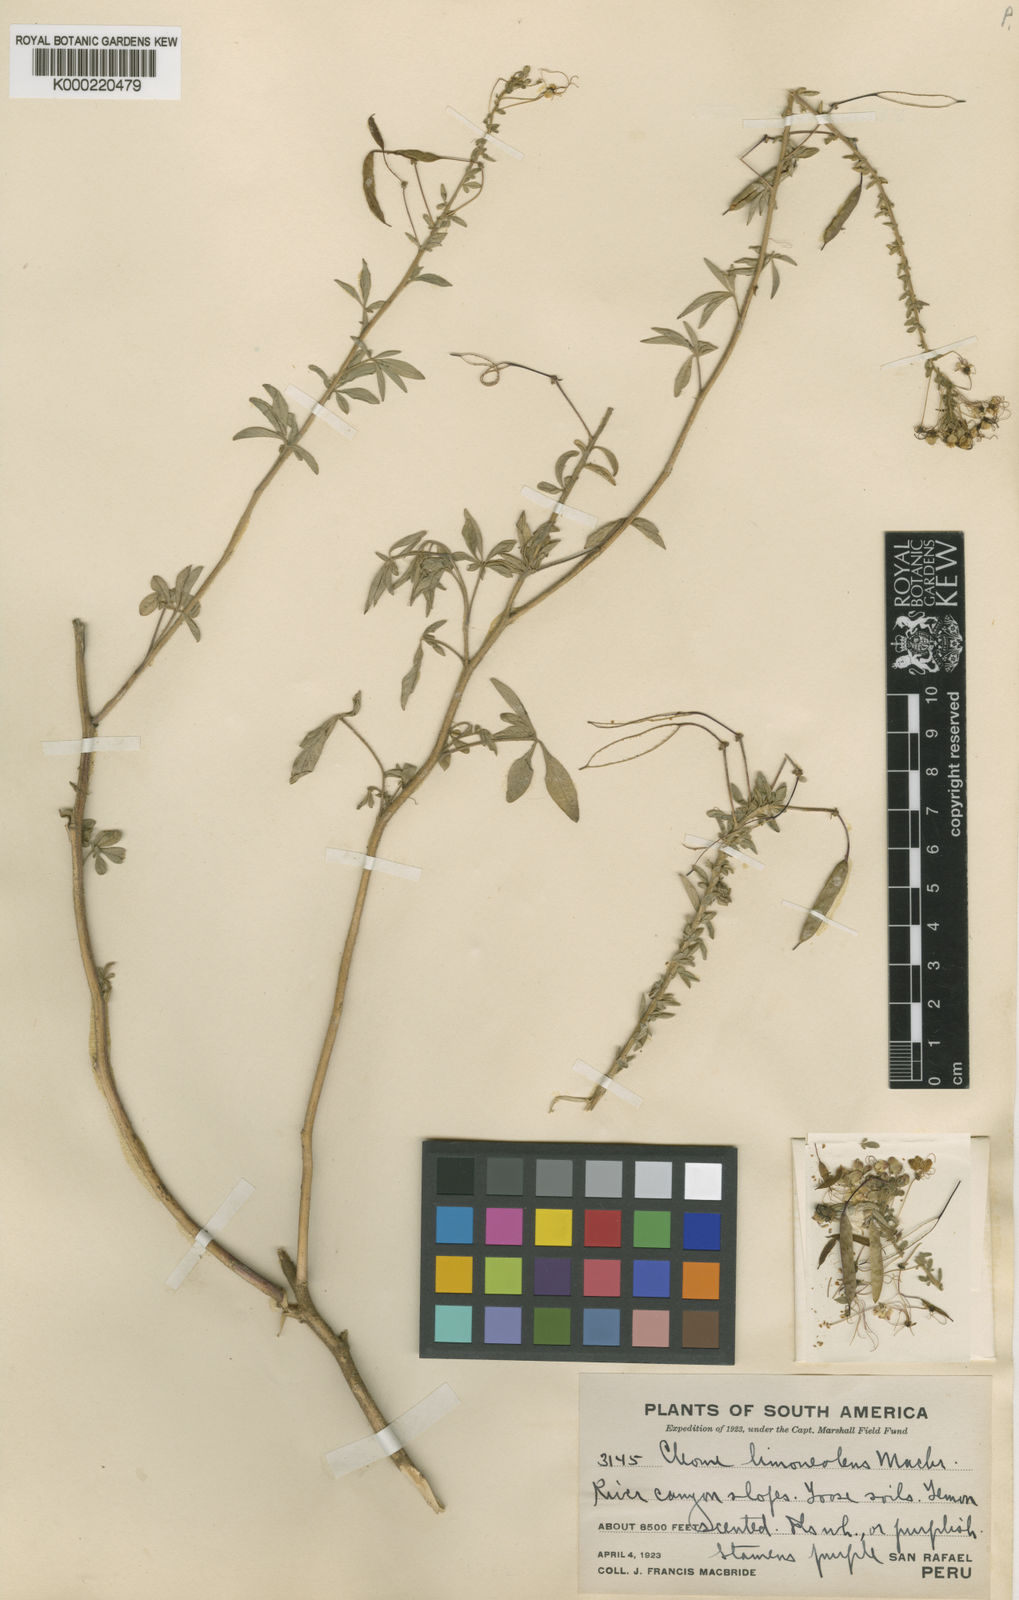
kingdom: Plantae
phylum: Tracheophyta
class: Magnoliopsida
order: Brassicales
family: Cleomaceae
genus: Andinocleome
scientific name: Andinocleome limoneolens
